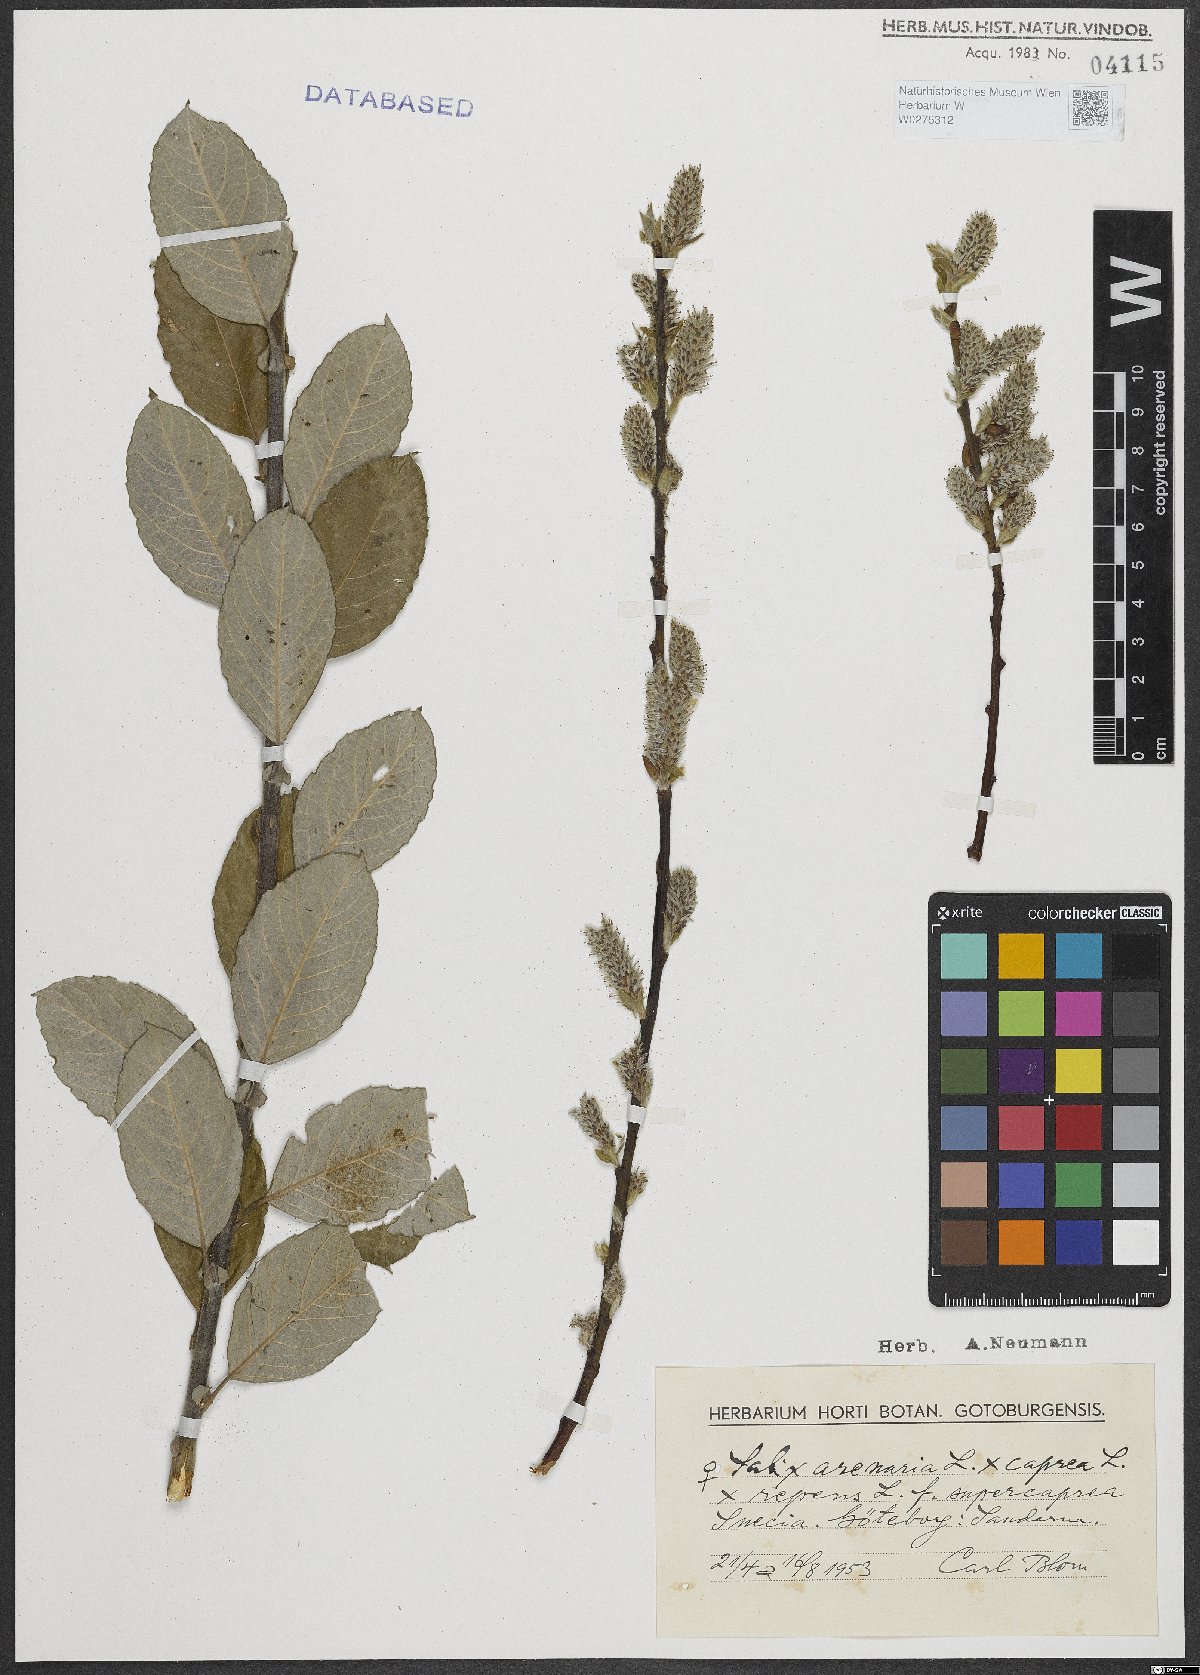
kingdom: Plantae
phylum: Tracheophyta
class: Magnoliopsida
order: Malpighiales
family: Salicaceae
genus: Salix
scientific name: Salix repens
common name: Creeping willow
